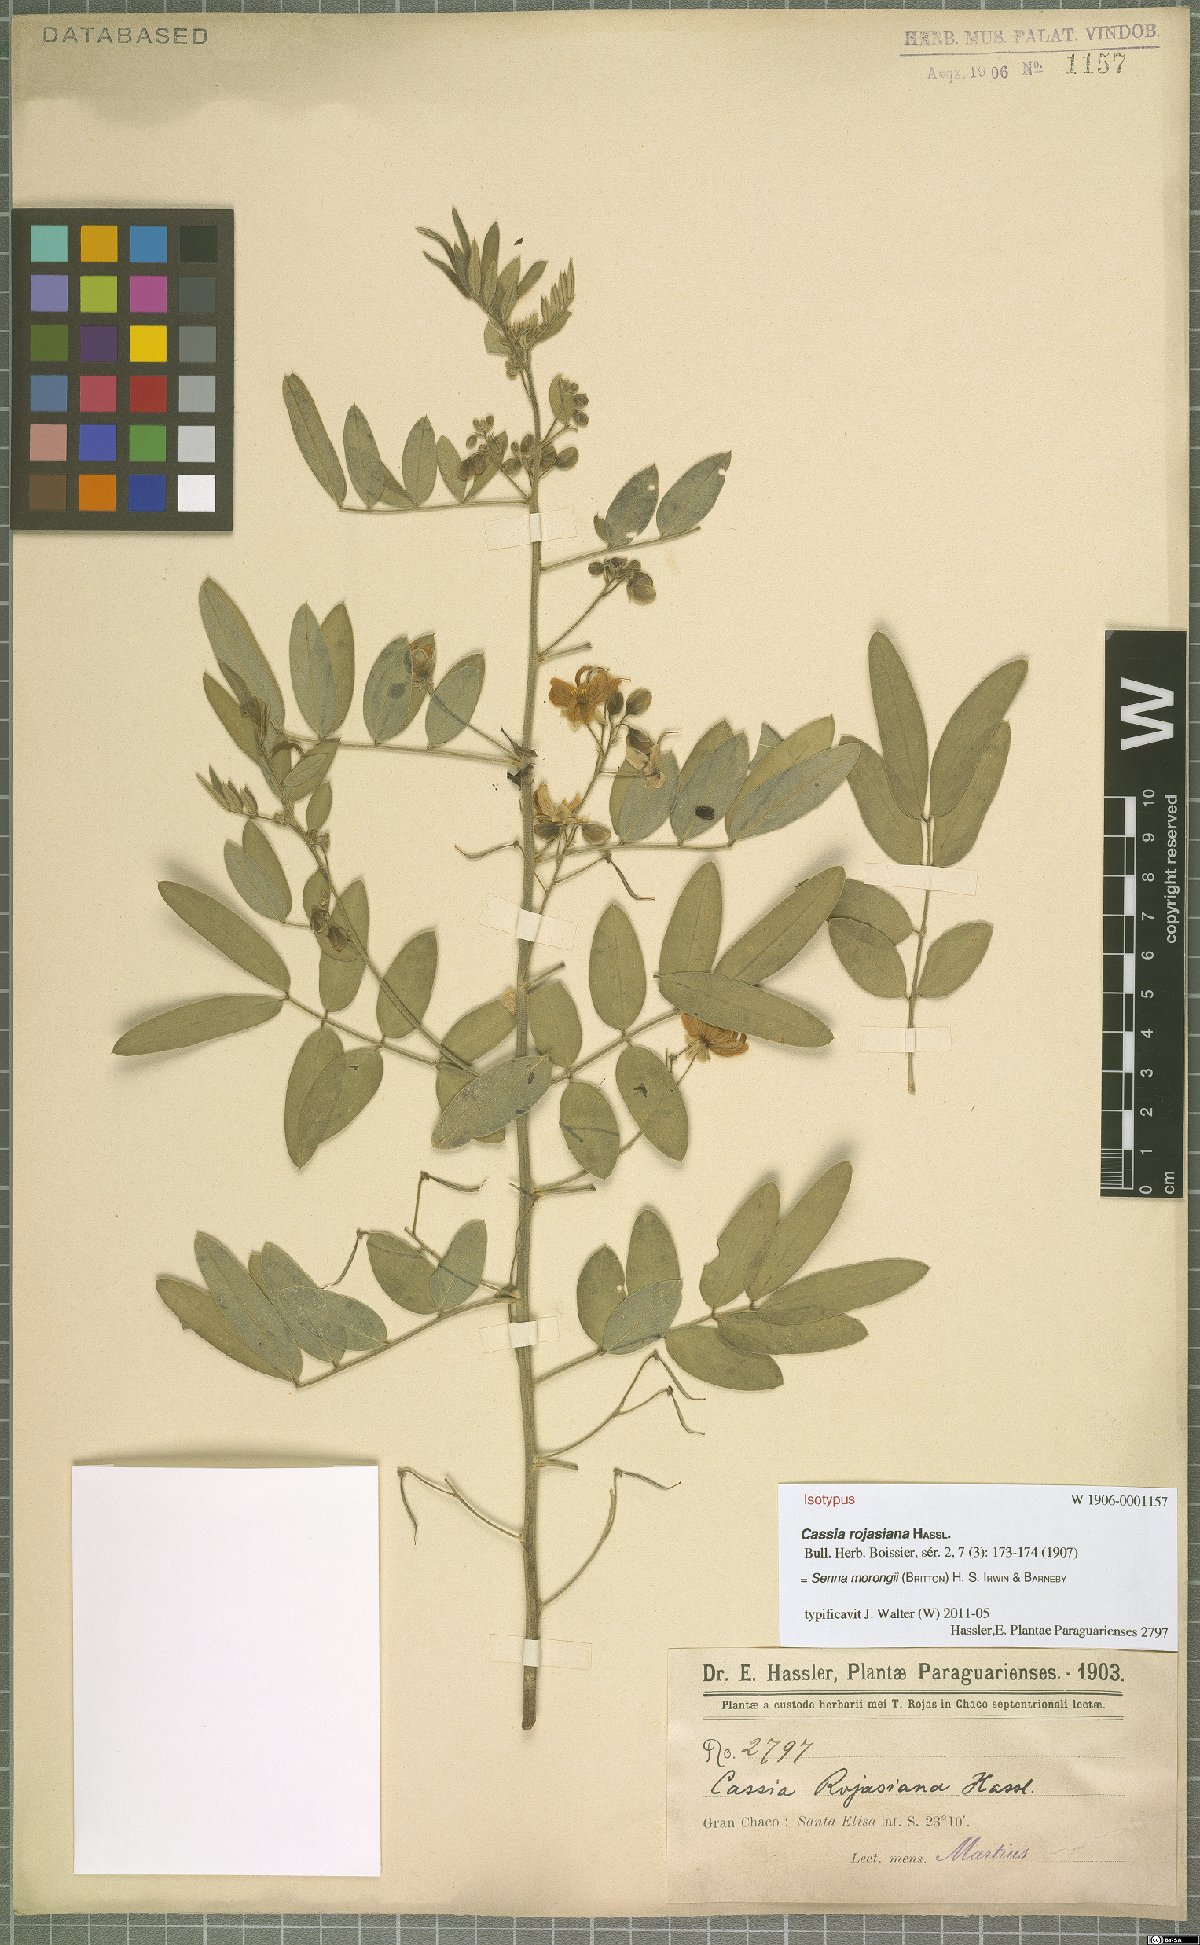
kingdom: Plantae
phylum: Tracheophyta
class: Magnoliopsida
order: Fabales
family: Fabaceae
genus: Senna
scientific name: Senna morongii
